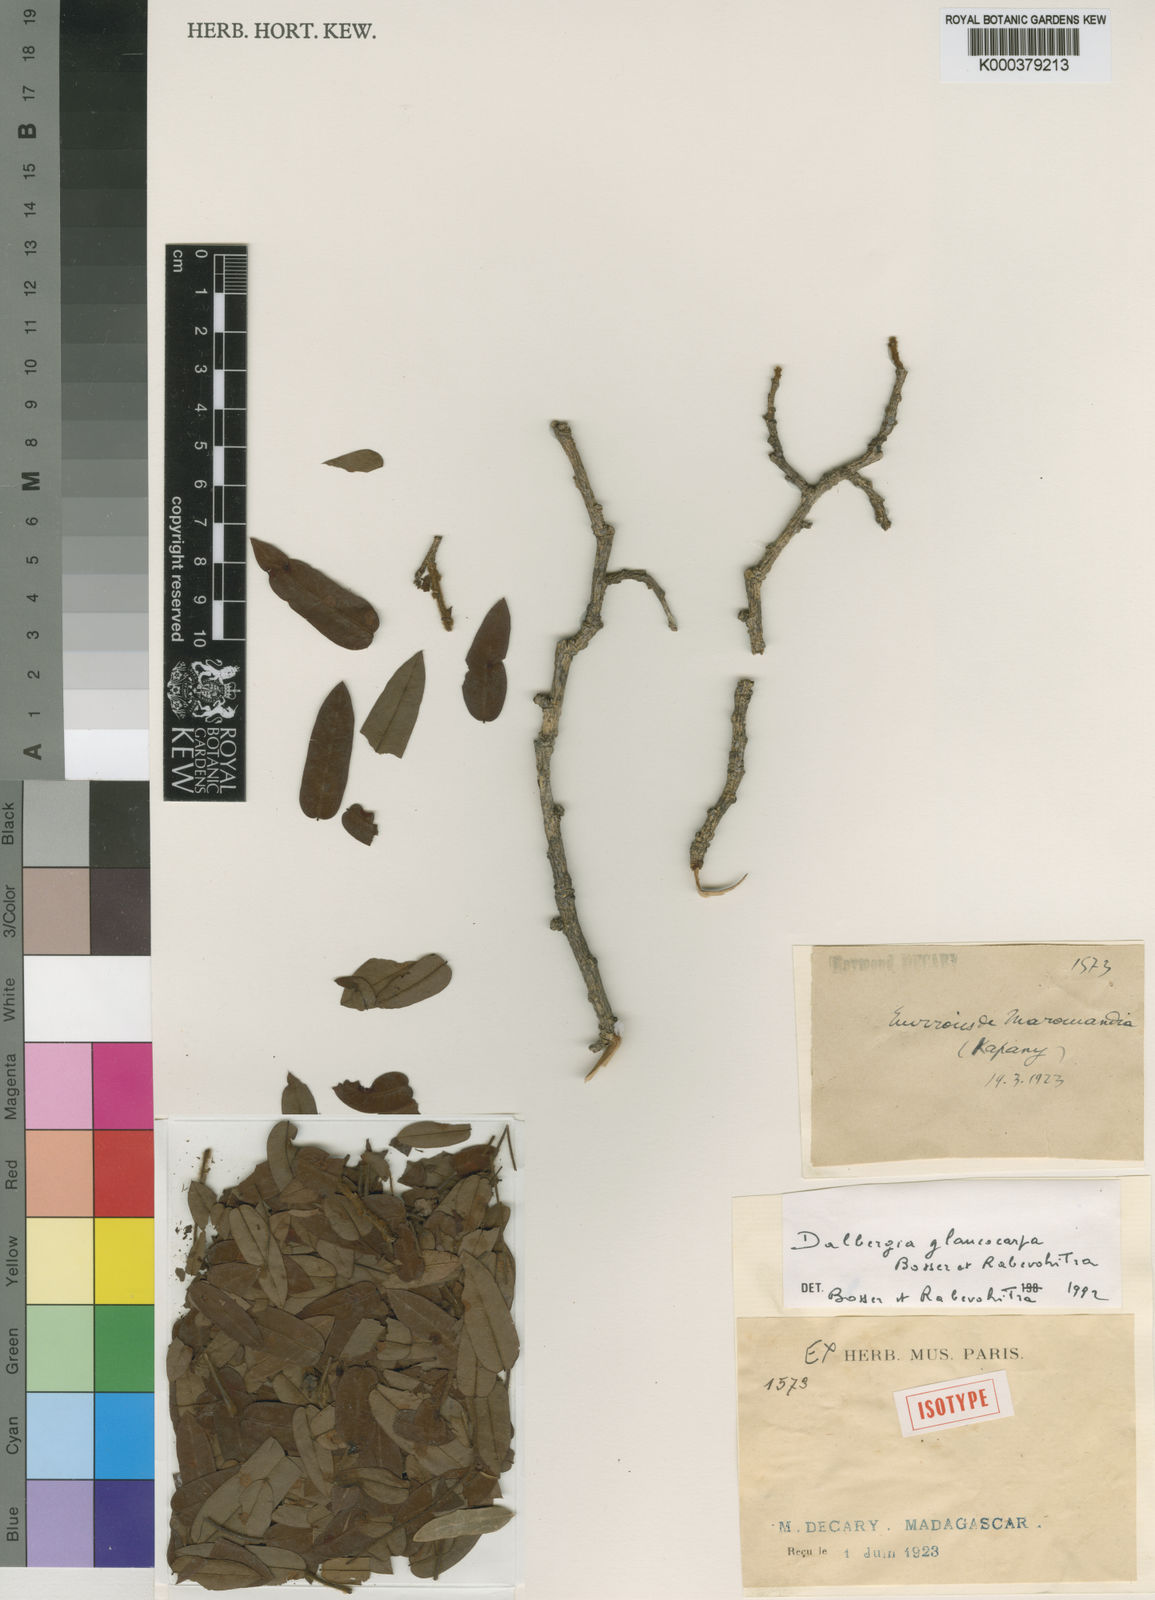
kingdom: Plantae
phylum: Tracheophyta
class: Magnoliopsida
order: Fabales
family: Fabaceae
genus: Dalbergia
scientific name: Dalbergia glaucocarpa
